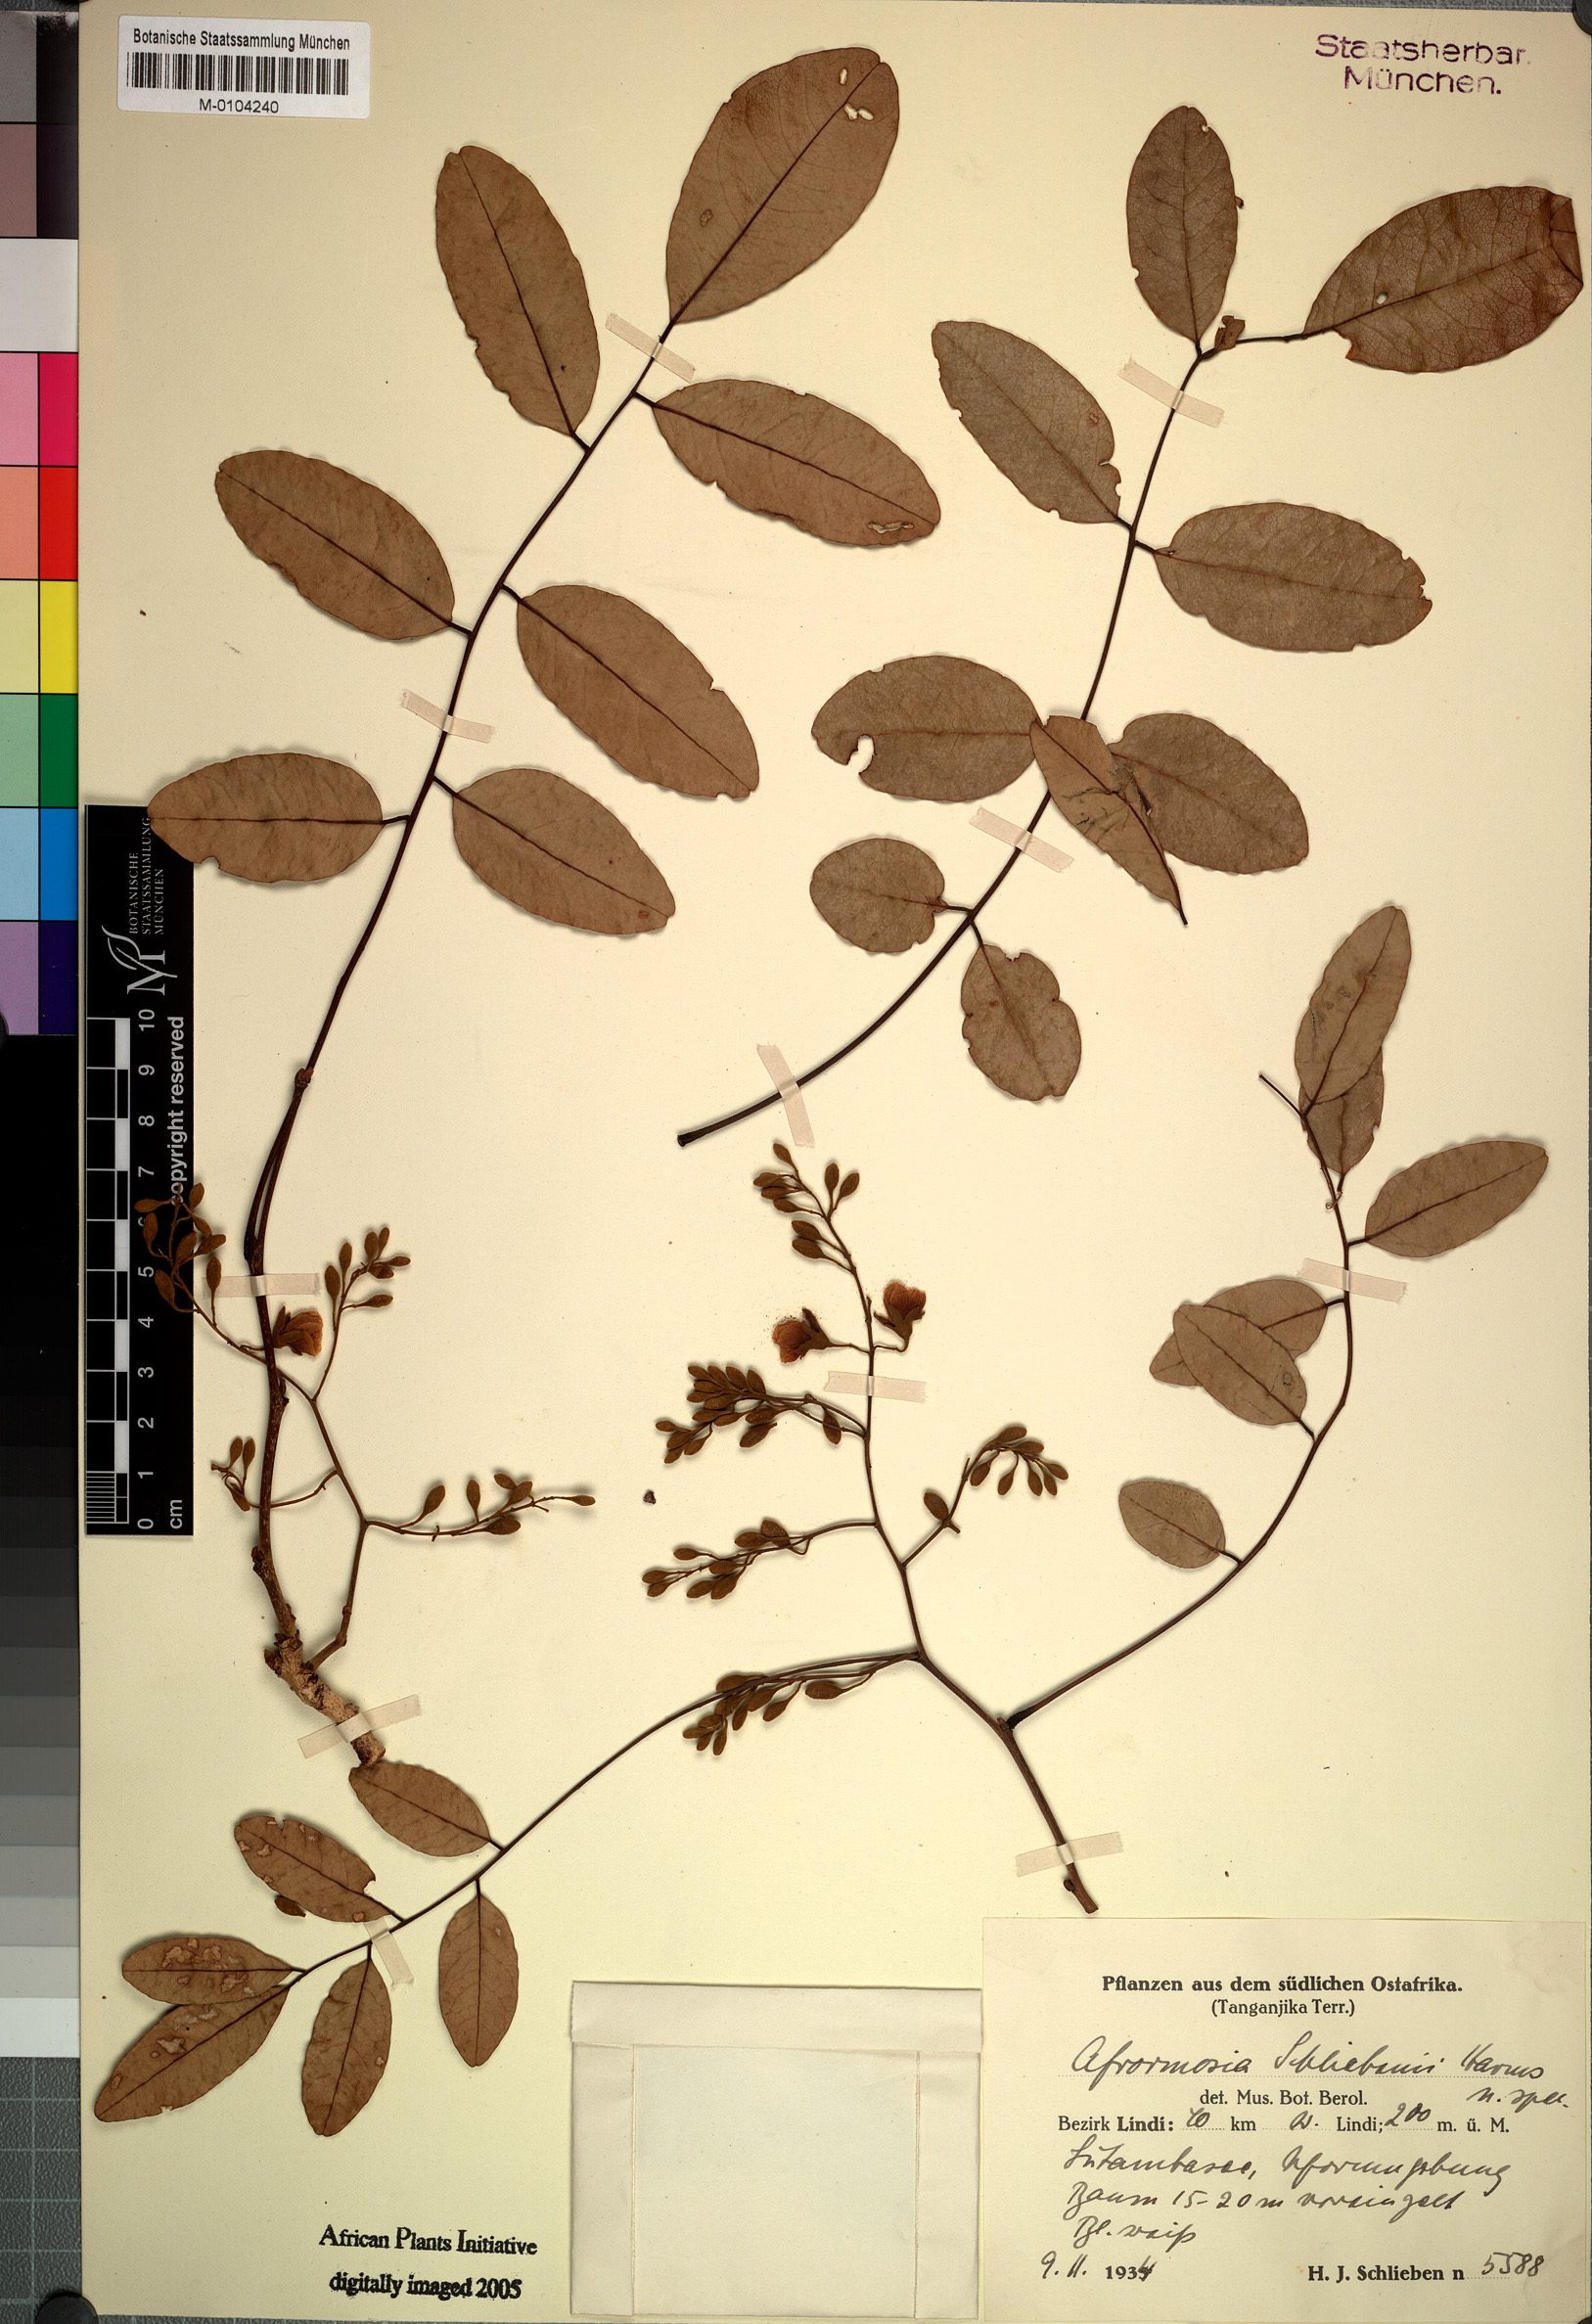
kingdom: Plantae
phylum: Tracheophyta
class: Magnoliopsida
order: Fabales
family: Fabaceae
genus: Pericopsis
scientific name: Pericopsis angolensis
